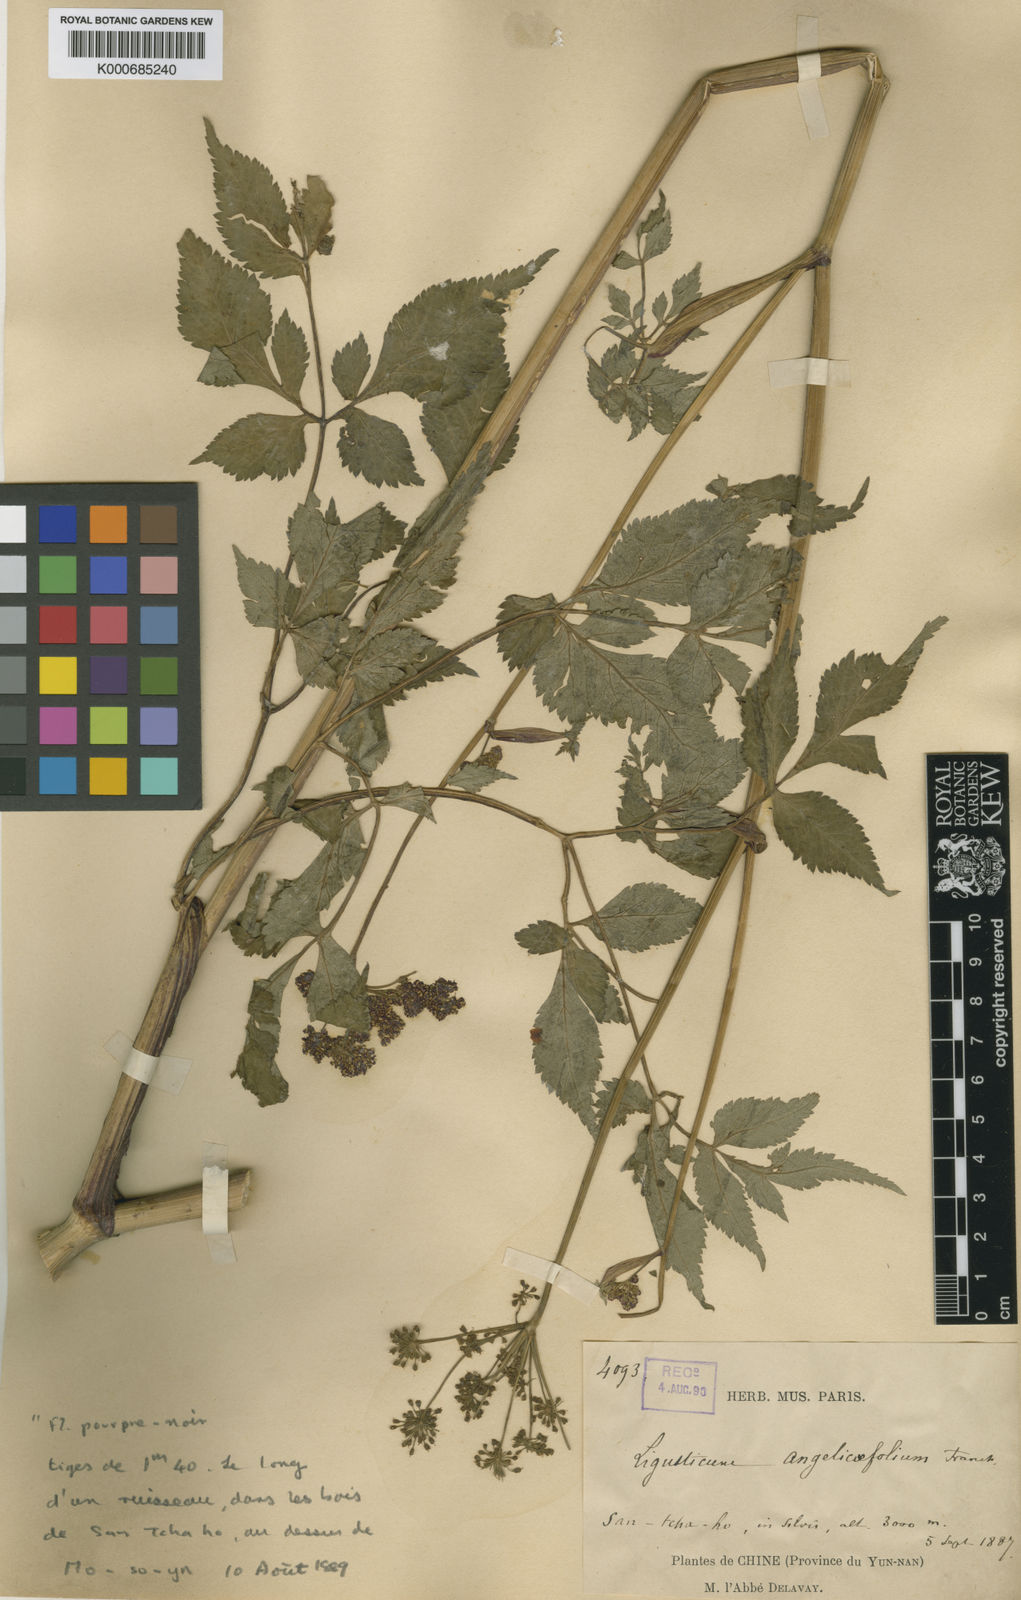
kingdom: Plantae
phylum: Tracheophyta
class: Magnoliopsida
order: Apiales
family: Apiaceae
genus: Ligusticopsis
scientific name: Ligusticopsis angelicifolia
